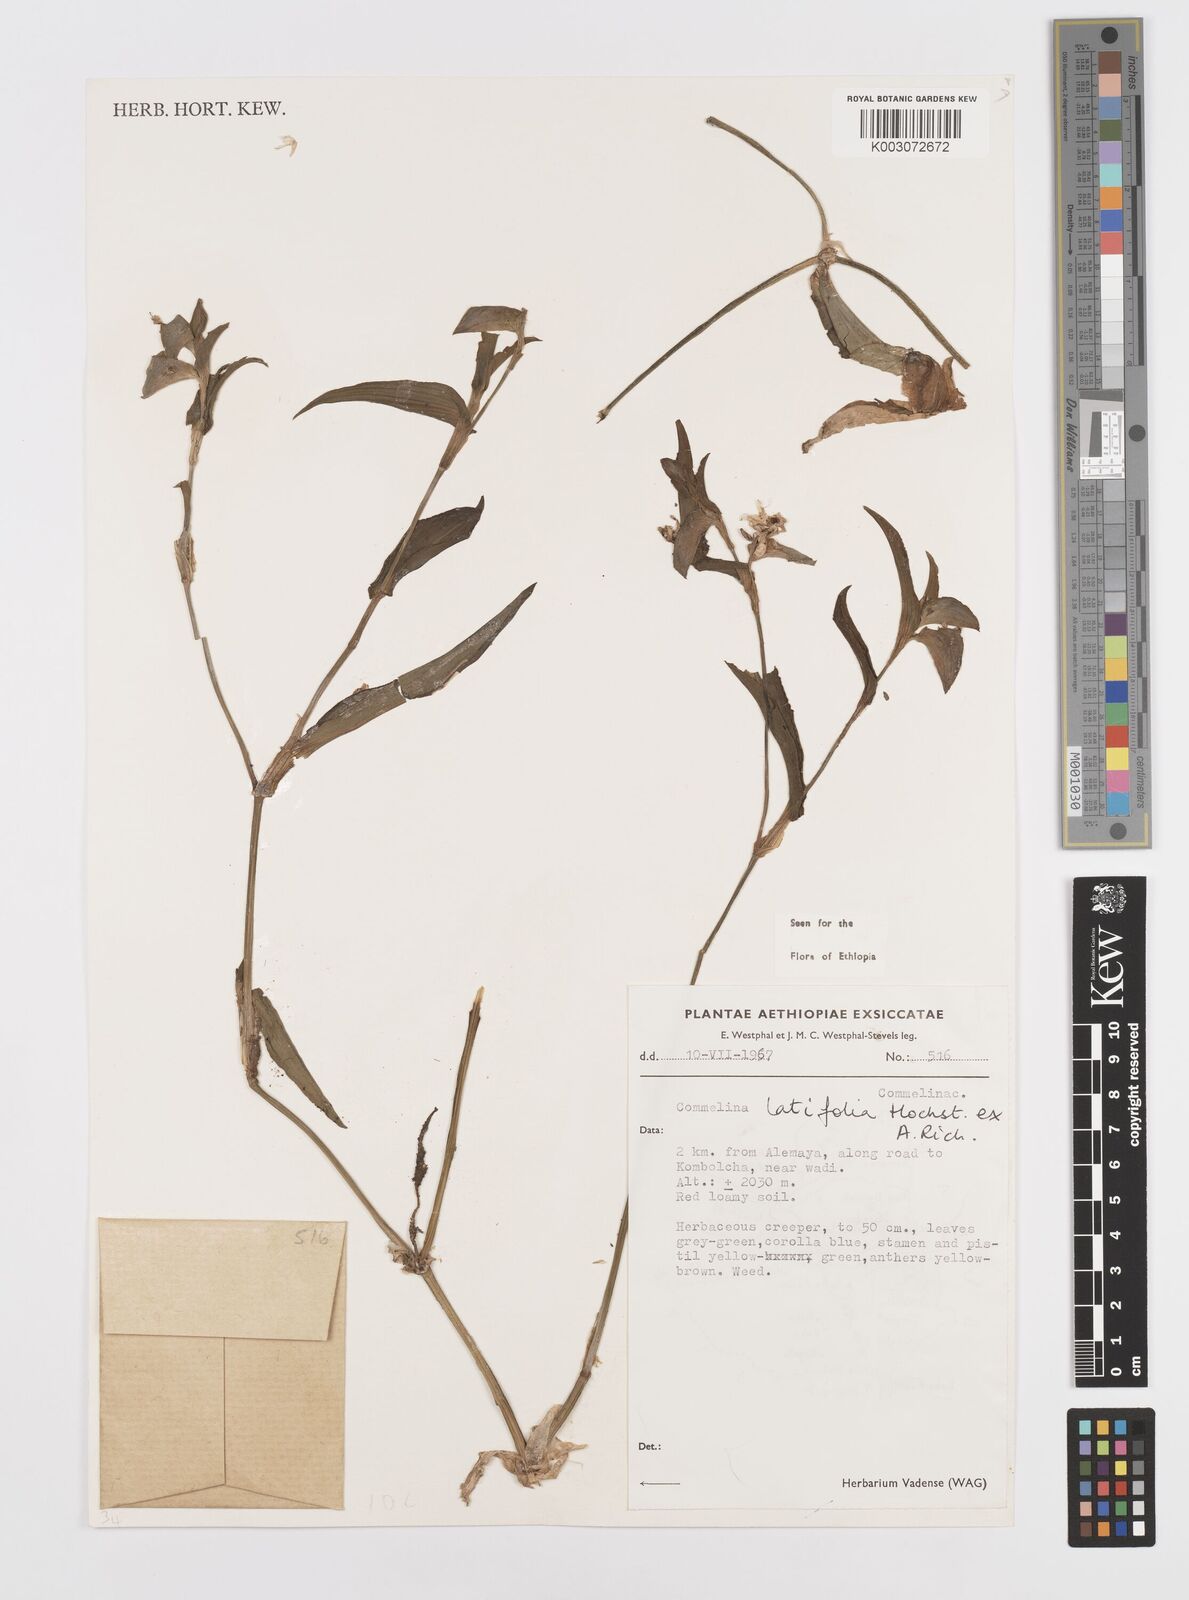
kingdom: Plantae
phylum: Tracheophyta
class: Liliopsida
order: Commelinales
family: Commelinaceae
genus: Commelina
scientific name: Commelina imberbis
